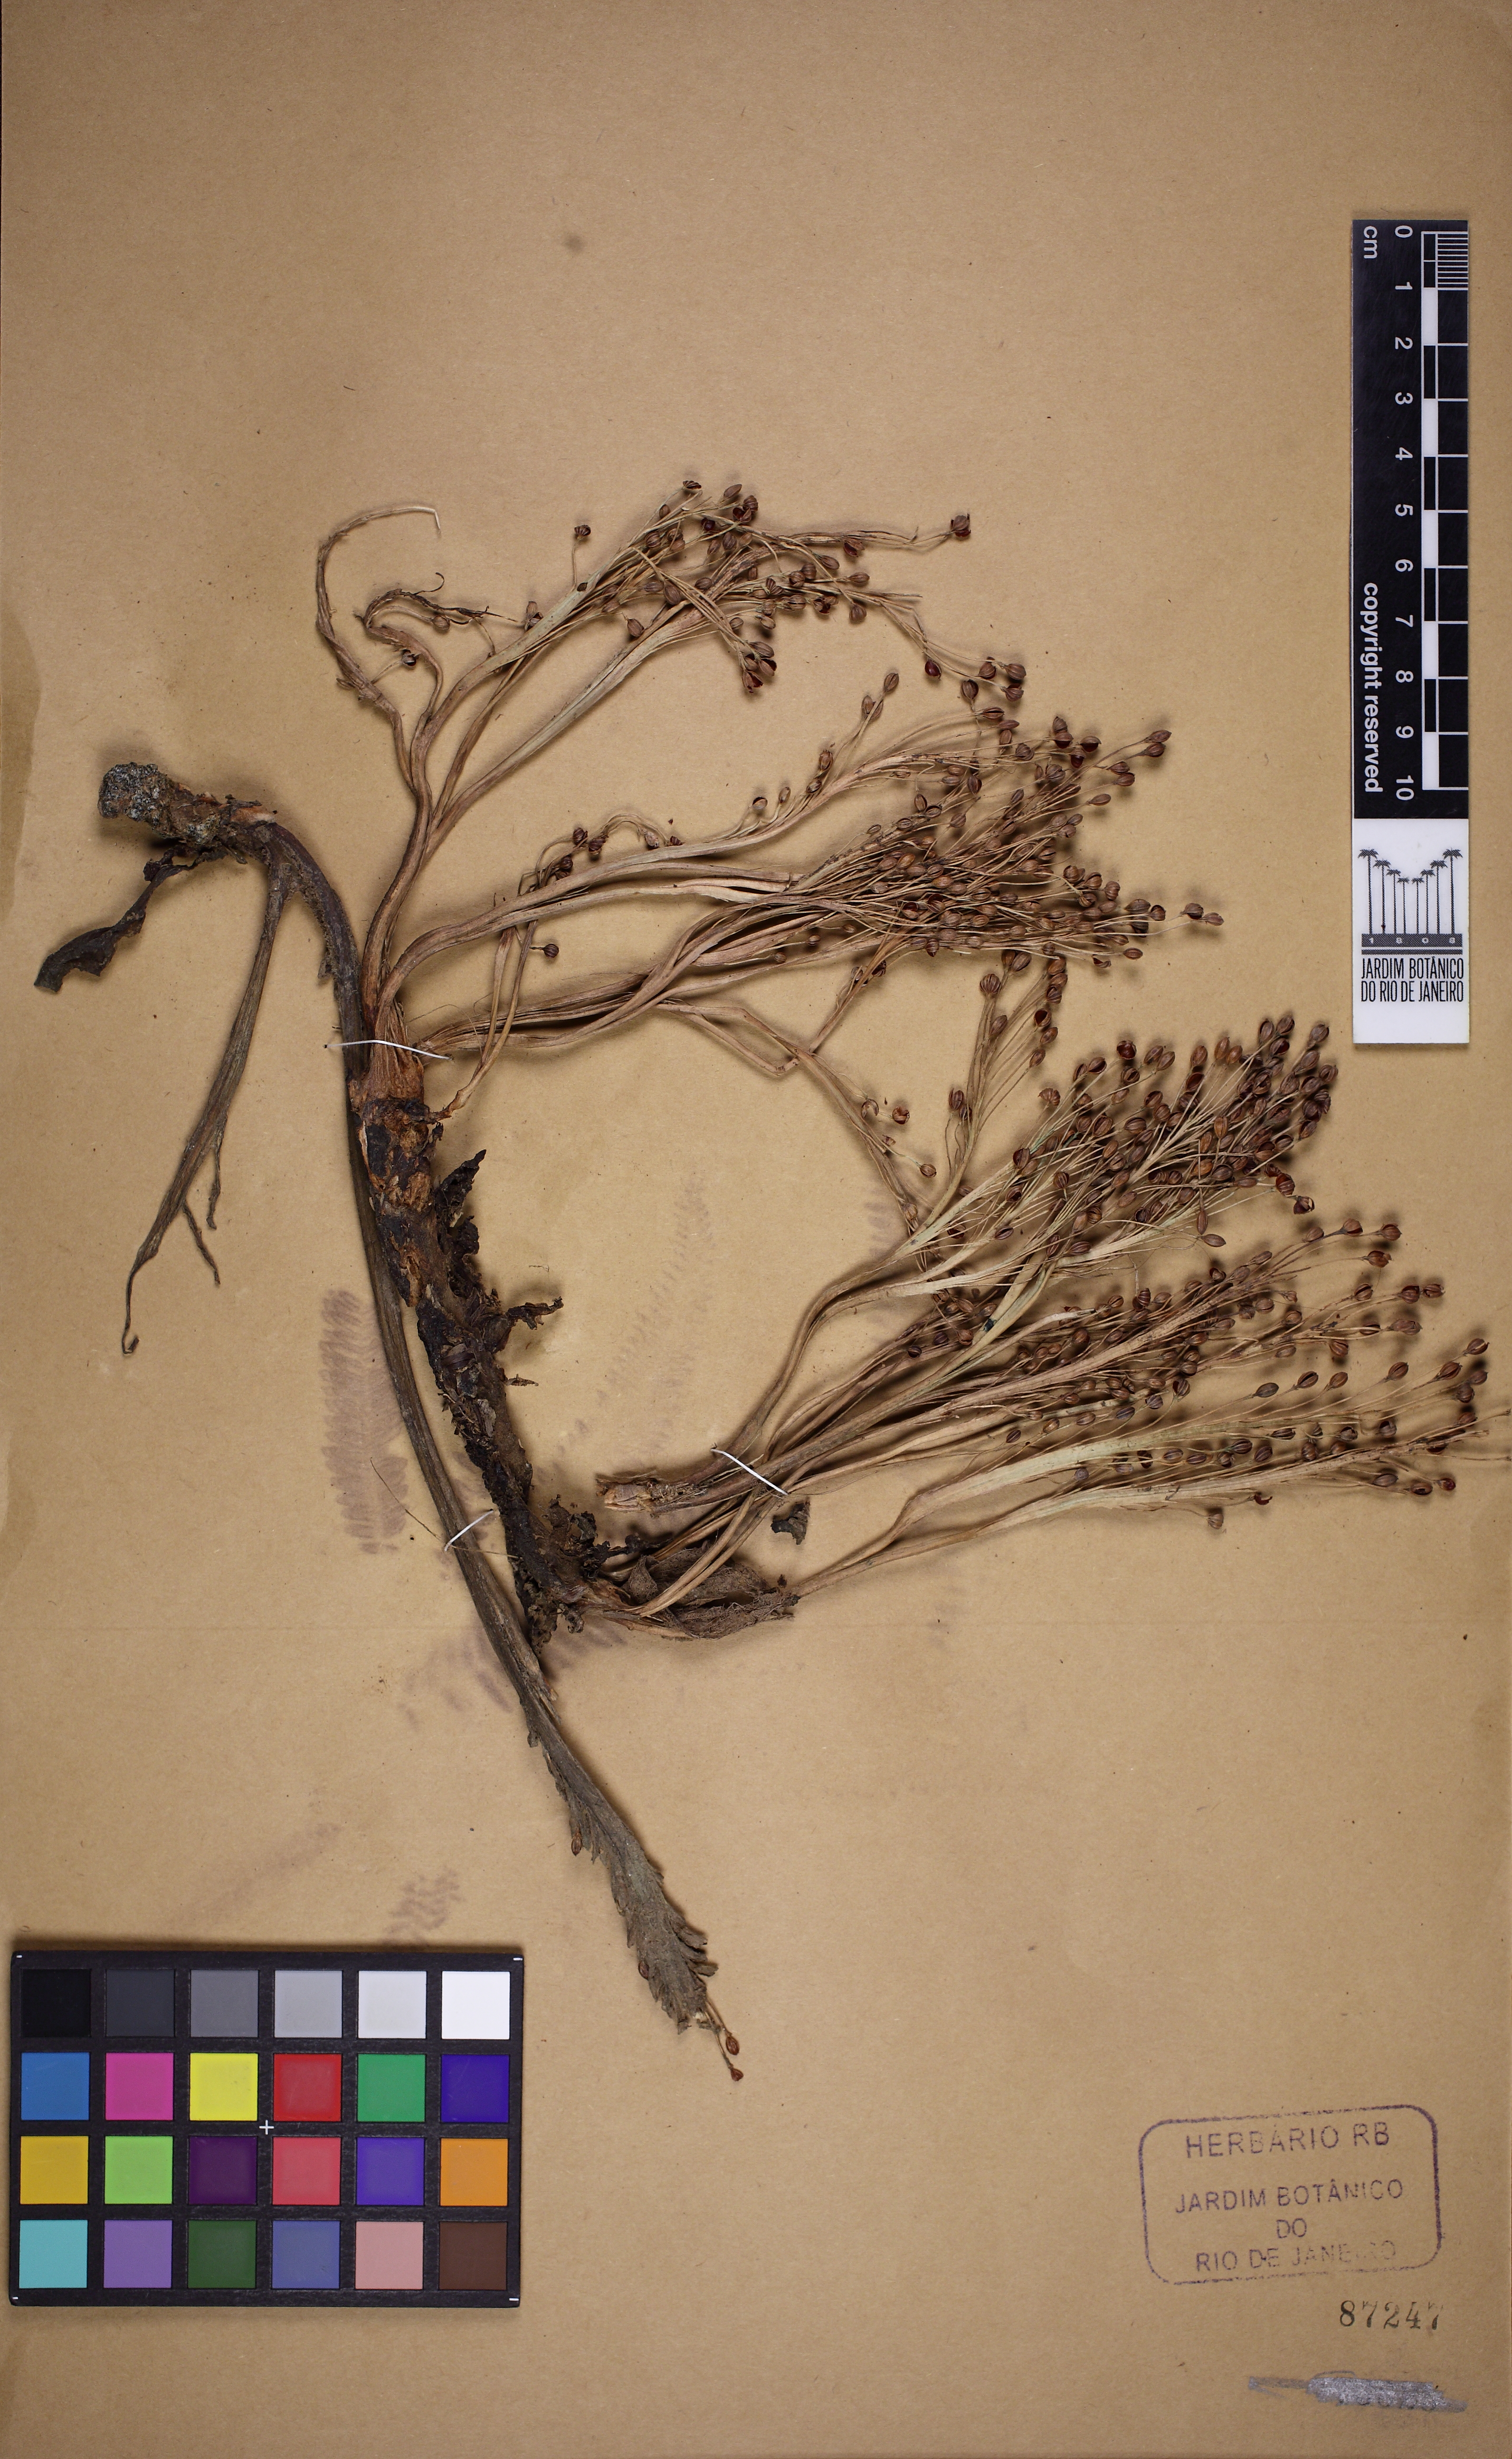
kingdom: Plantae
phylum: Tracheophyta
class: Magnoliopsida
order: Malpighiales
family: Podostemaceae
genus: Mourera
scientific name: Mourera aspera
